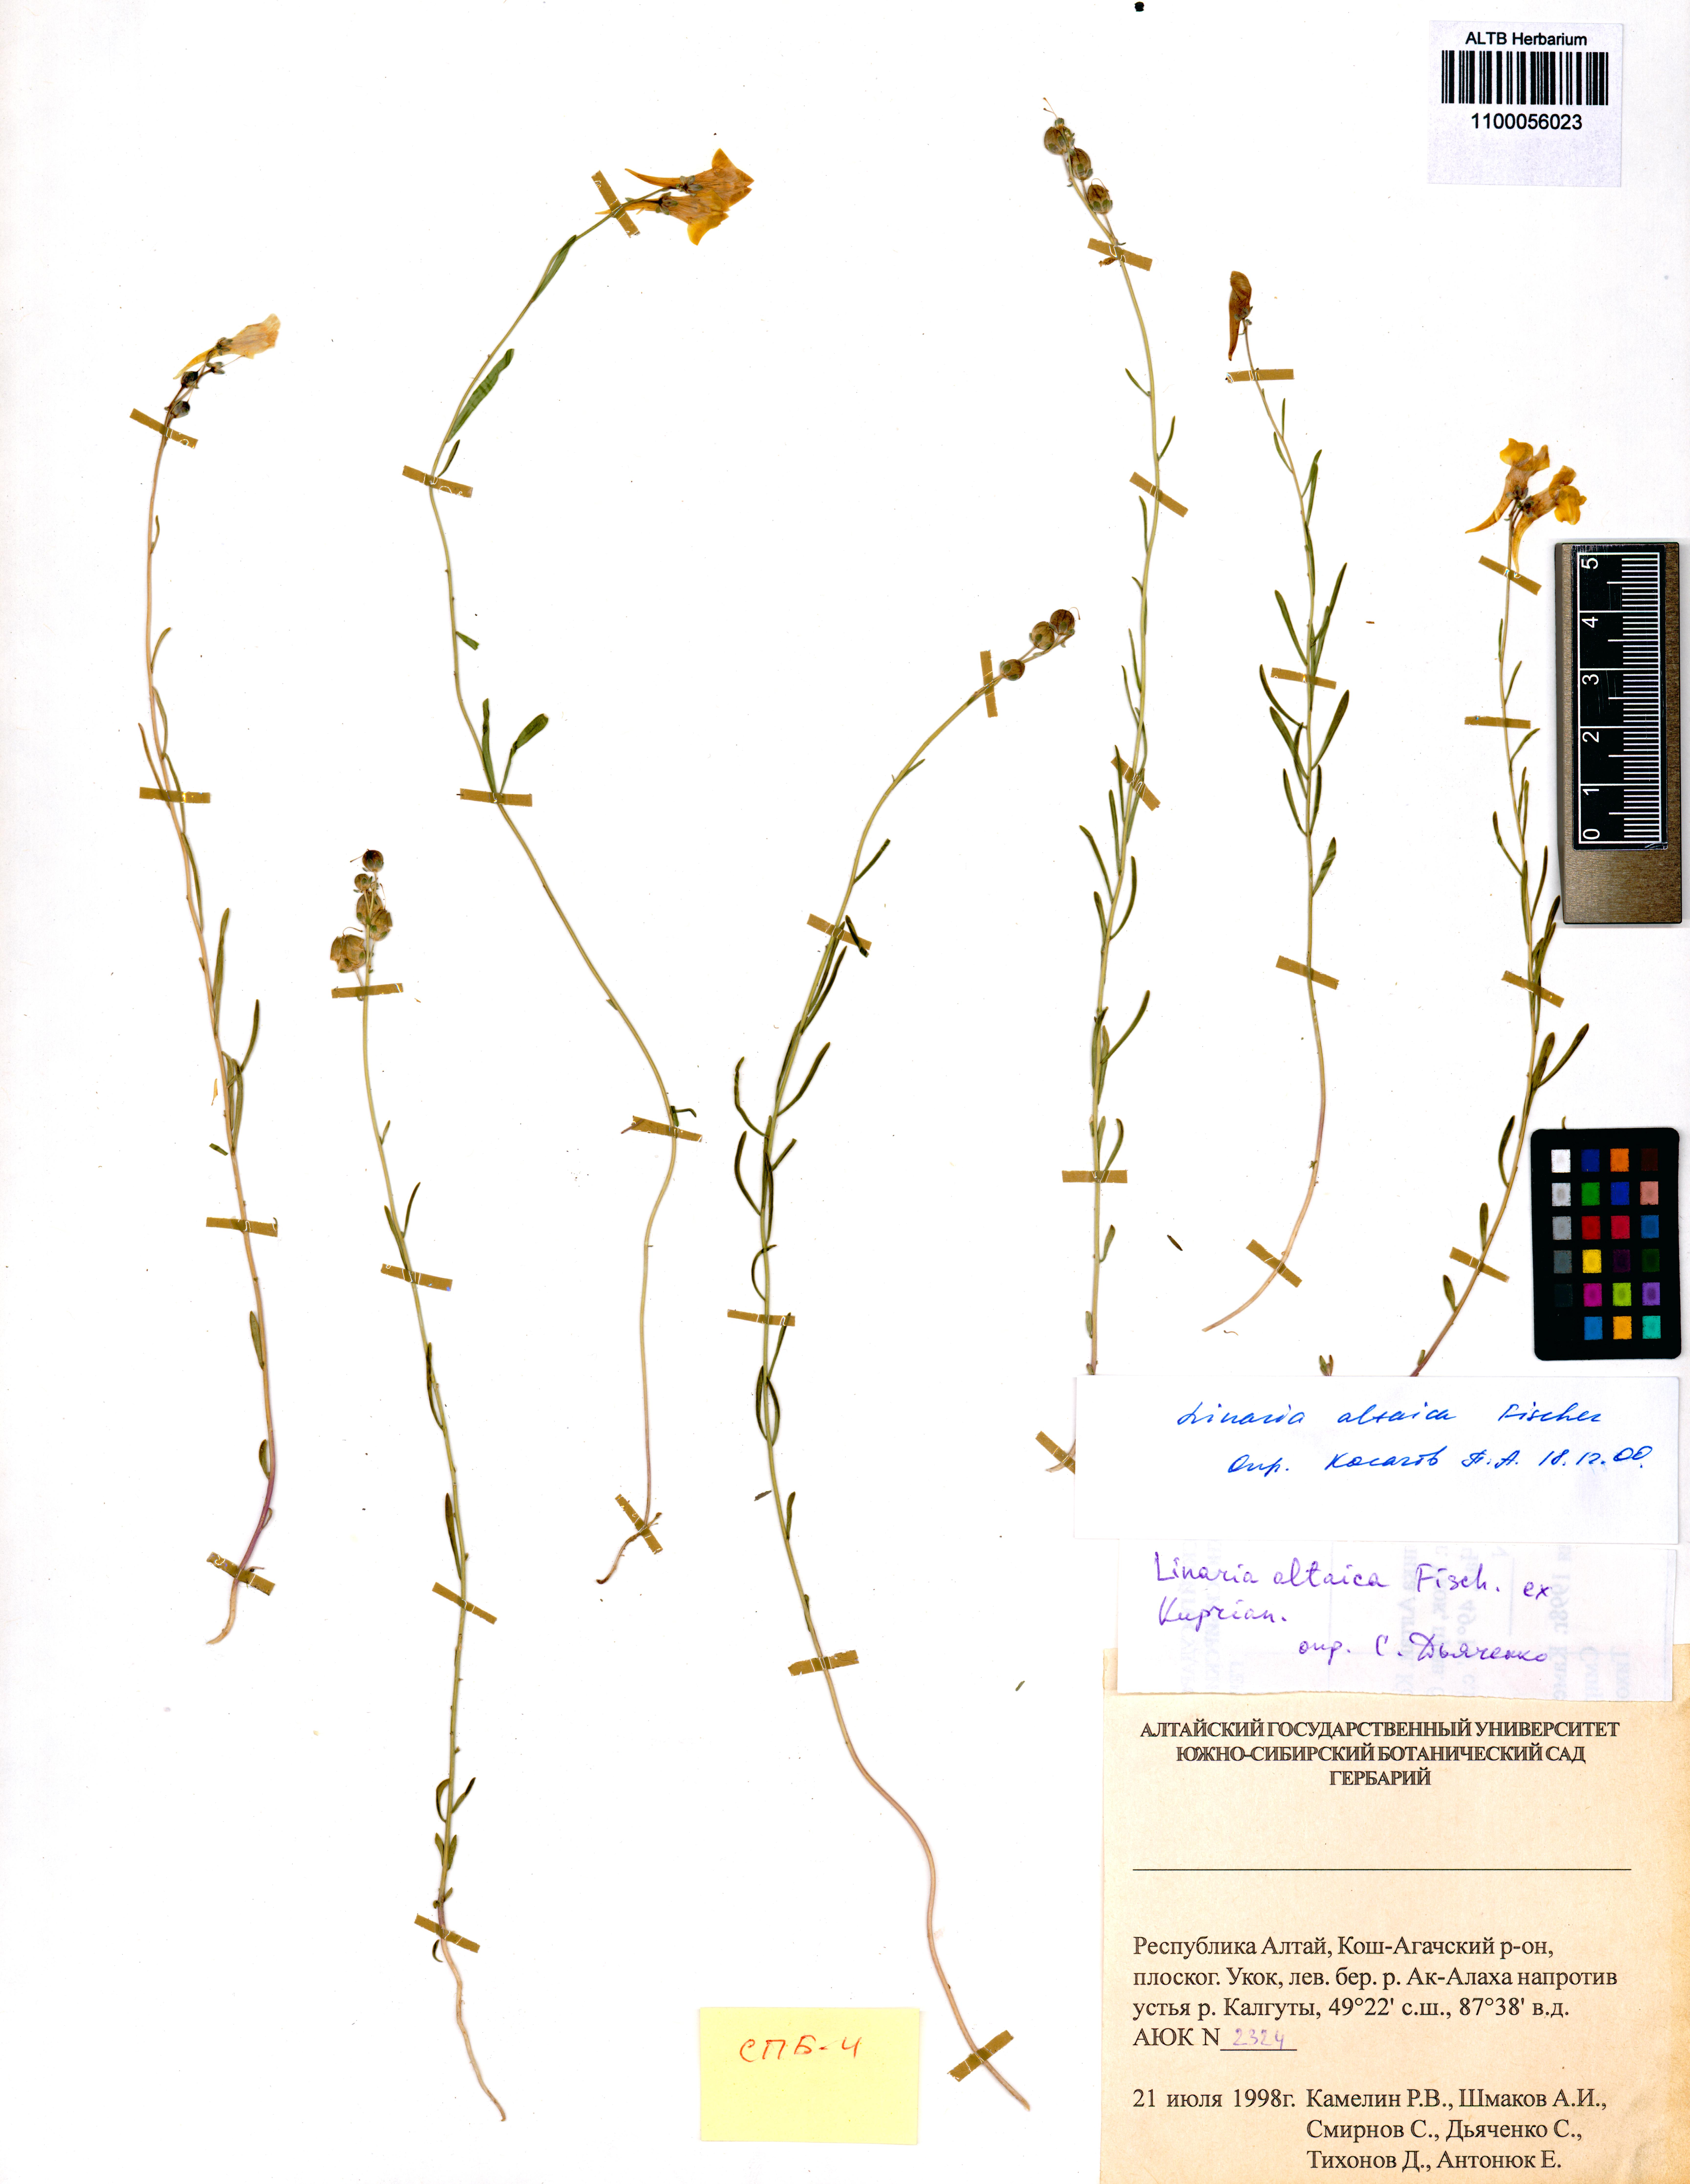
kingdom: Plantae
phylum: Tracheophyta
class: Magnoliopsida
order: Lamiales
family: Plantaginaceae
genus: Linaria
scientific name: Linaria altaica
